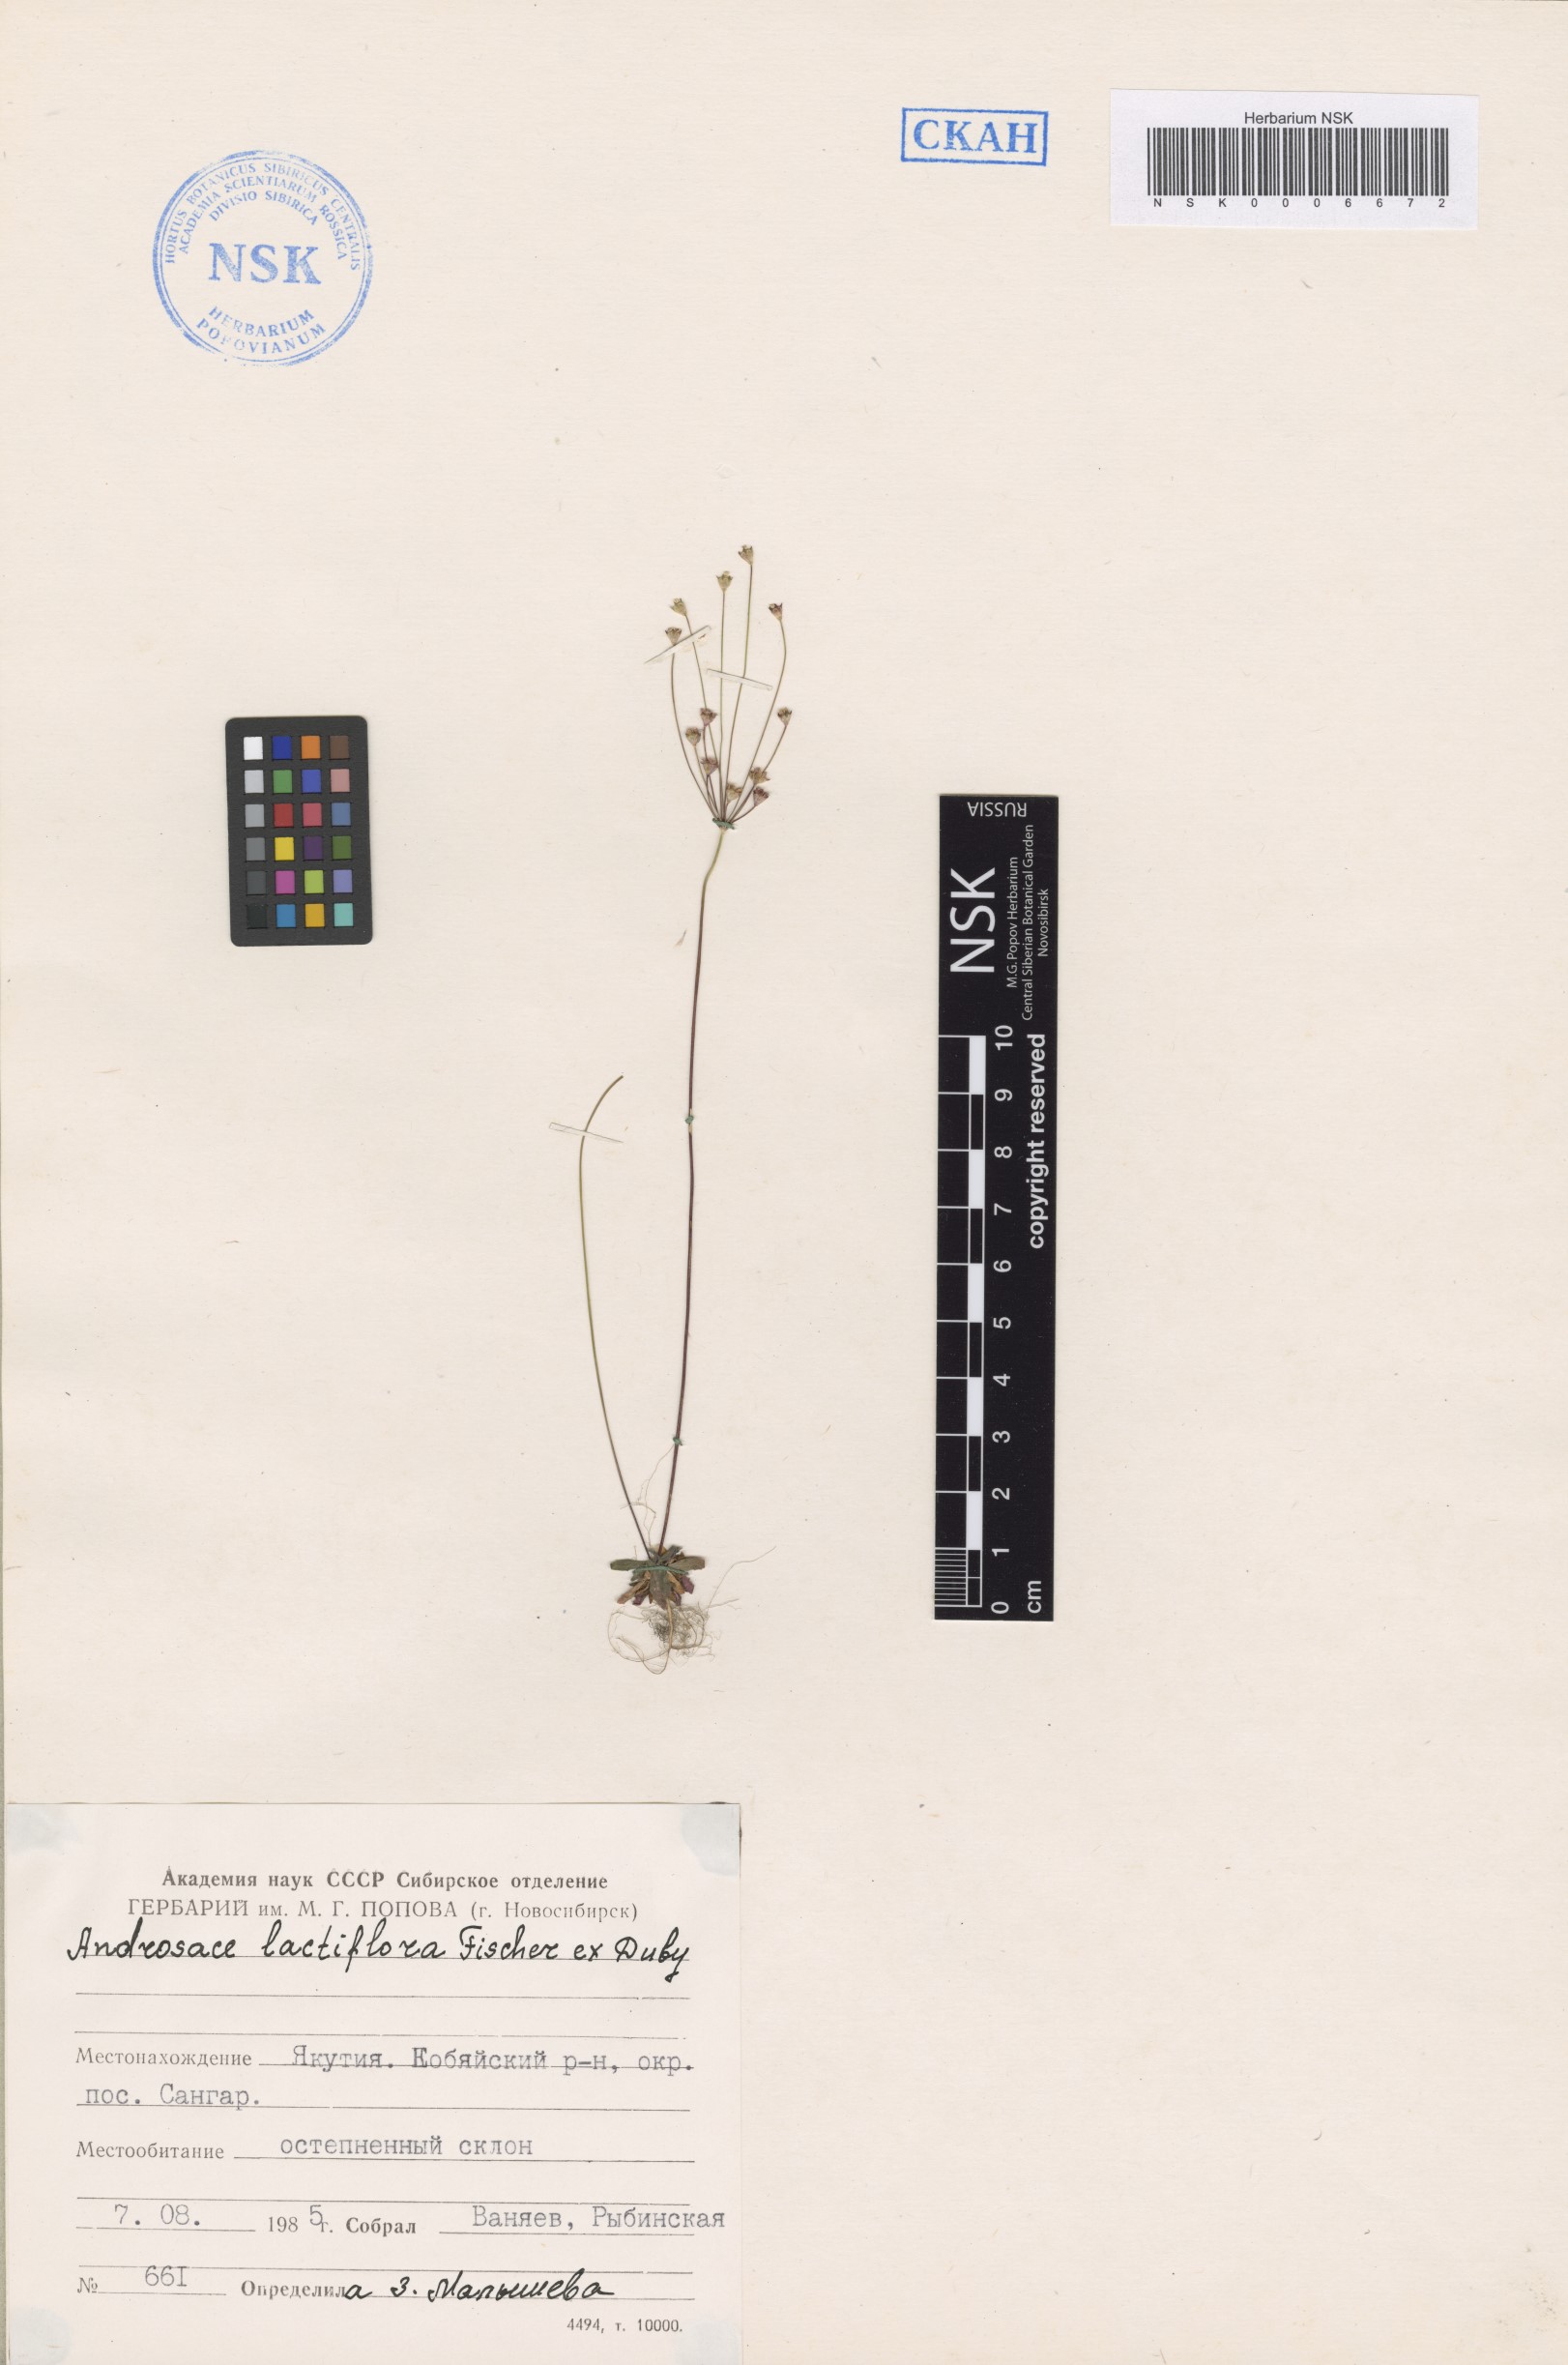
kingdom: Plantae
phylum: Tracheophyta
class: Magnoliopsida
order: Ericales
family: Primulaceae
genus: Androsace
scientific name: Androsace lactiflora
